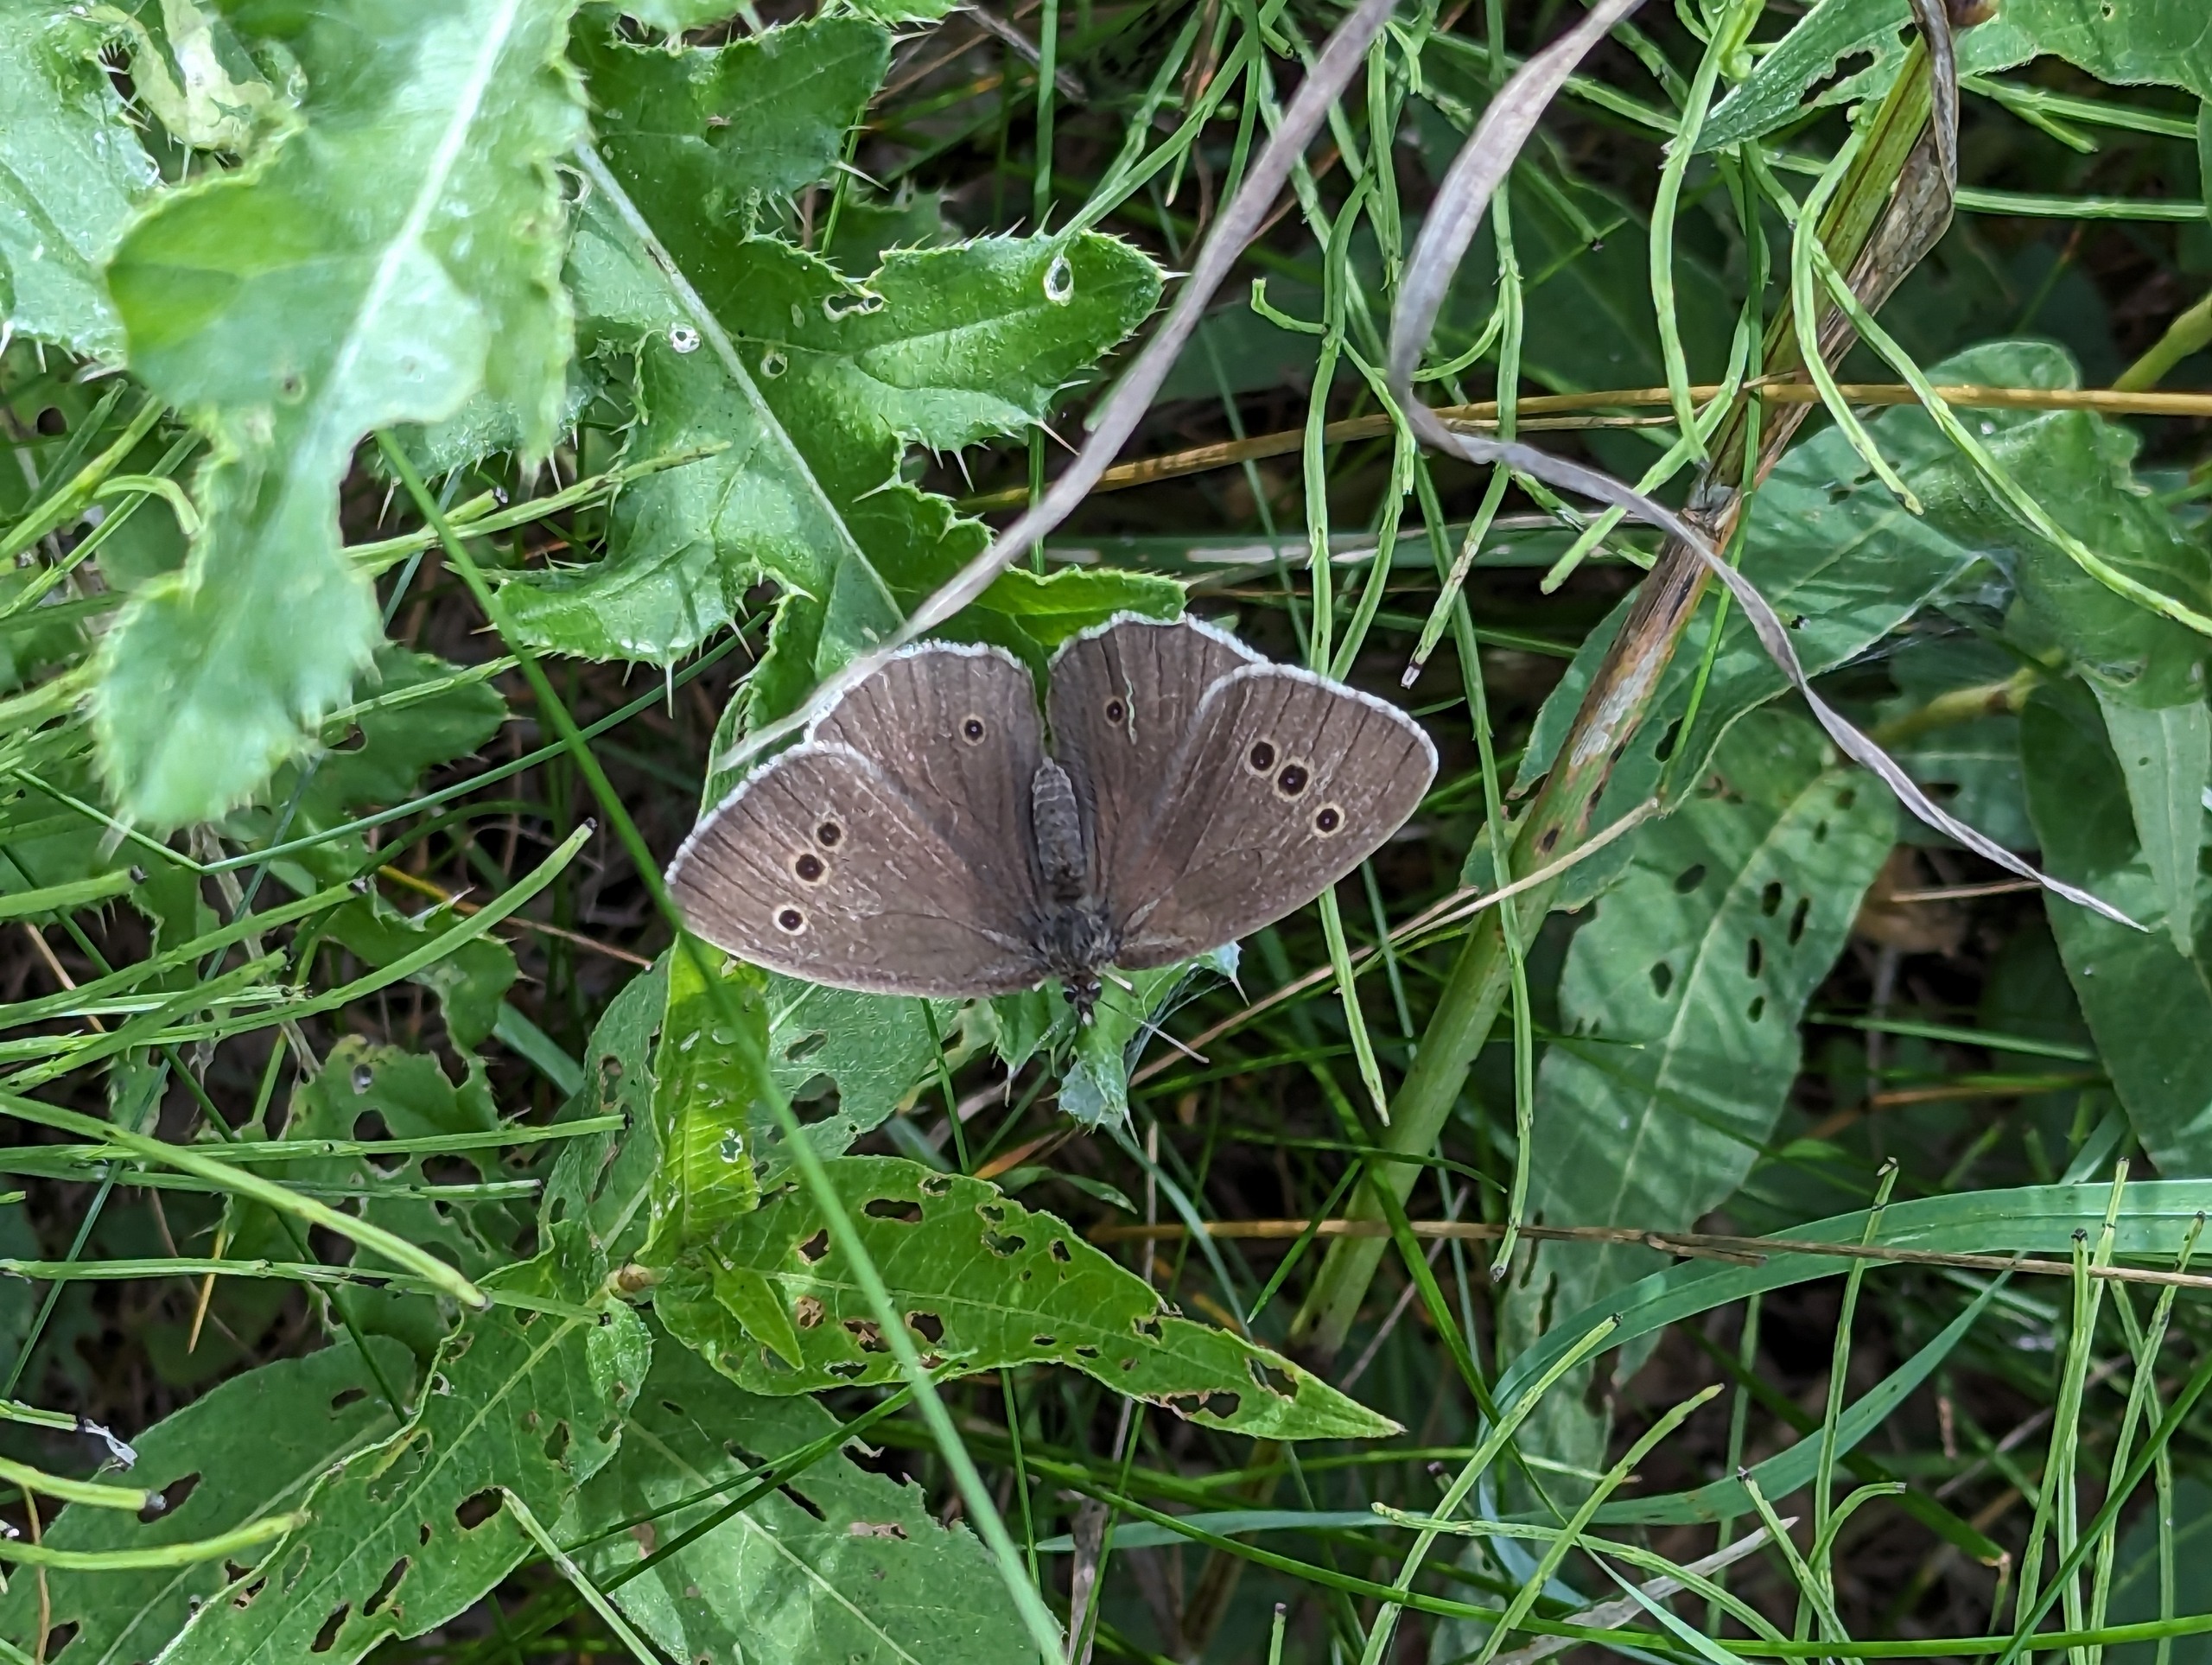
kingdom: Animalia
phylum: Arthropoda
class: Insecta
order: Lepidoptera
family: Nymphalidae
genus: Aphantopus
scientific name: Aphantopus hyperantus
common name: Engrandøje
